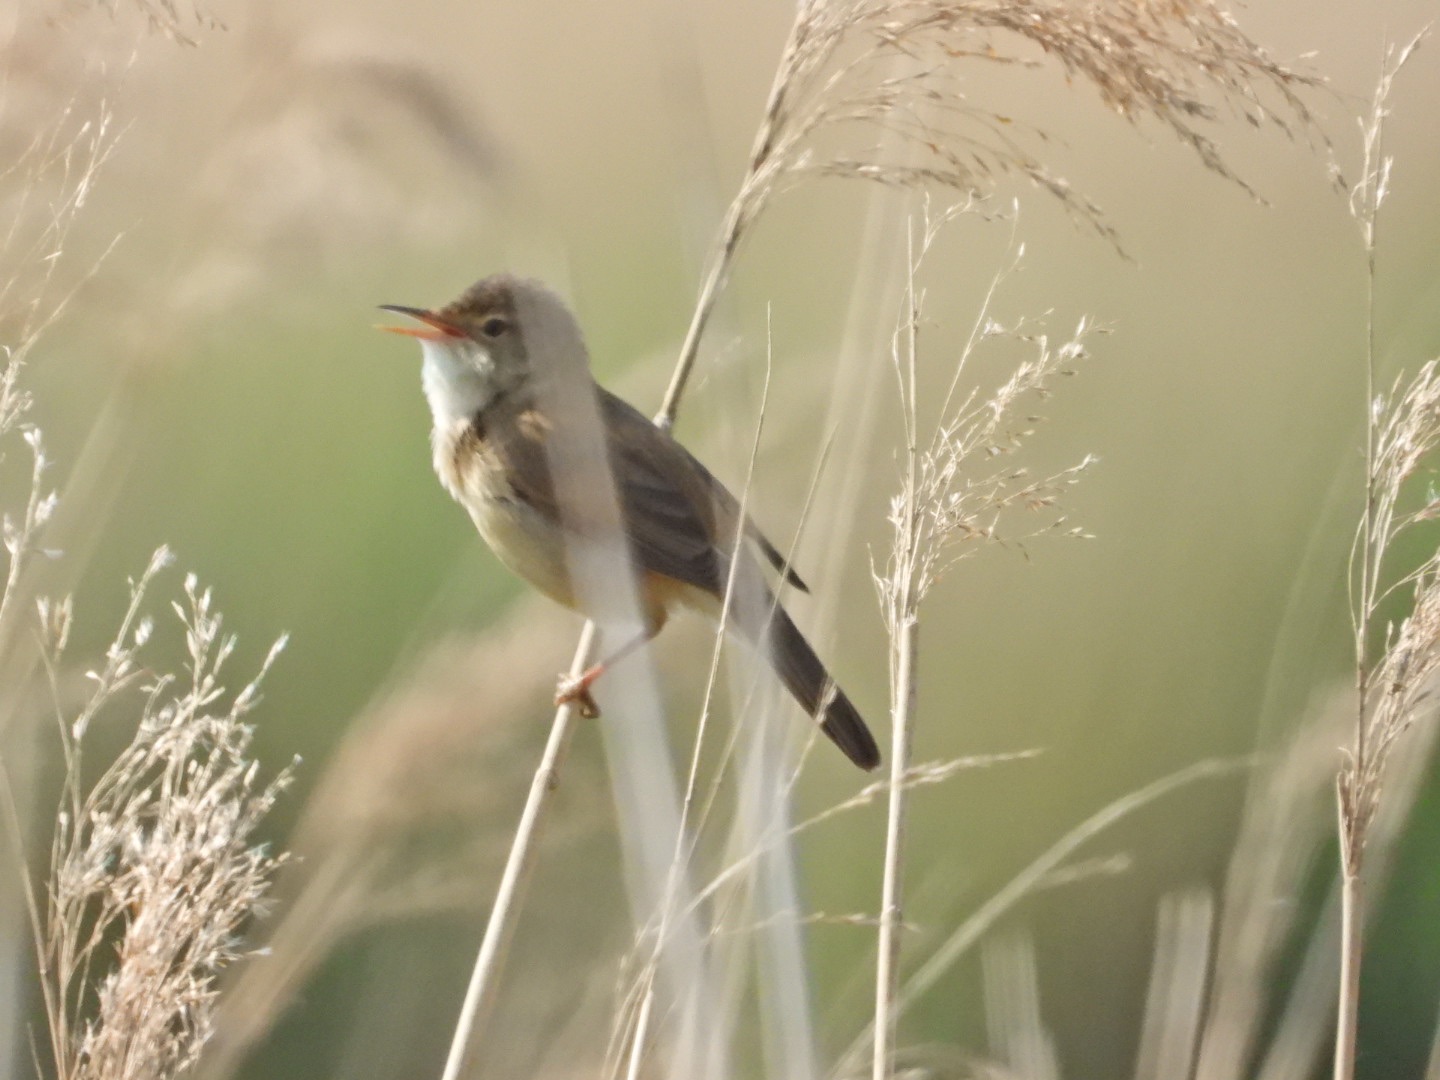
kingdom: Animalia
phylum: Chordata
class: Aves
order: Passeriformes
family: Acrocephalidae
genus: Acrocephalus
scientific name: Acrocephalus scirpaceus
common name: Rørsanger
